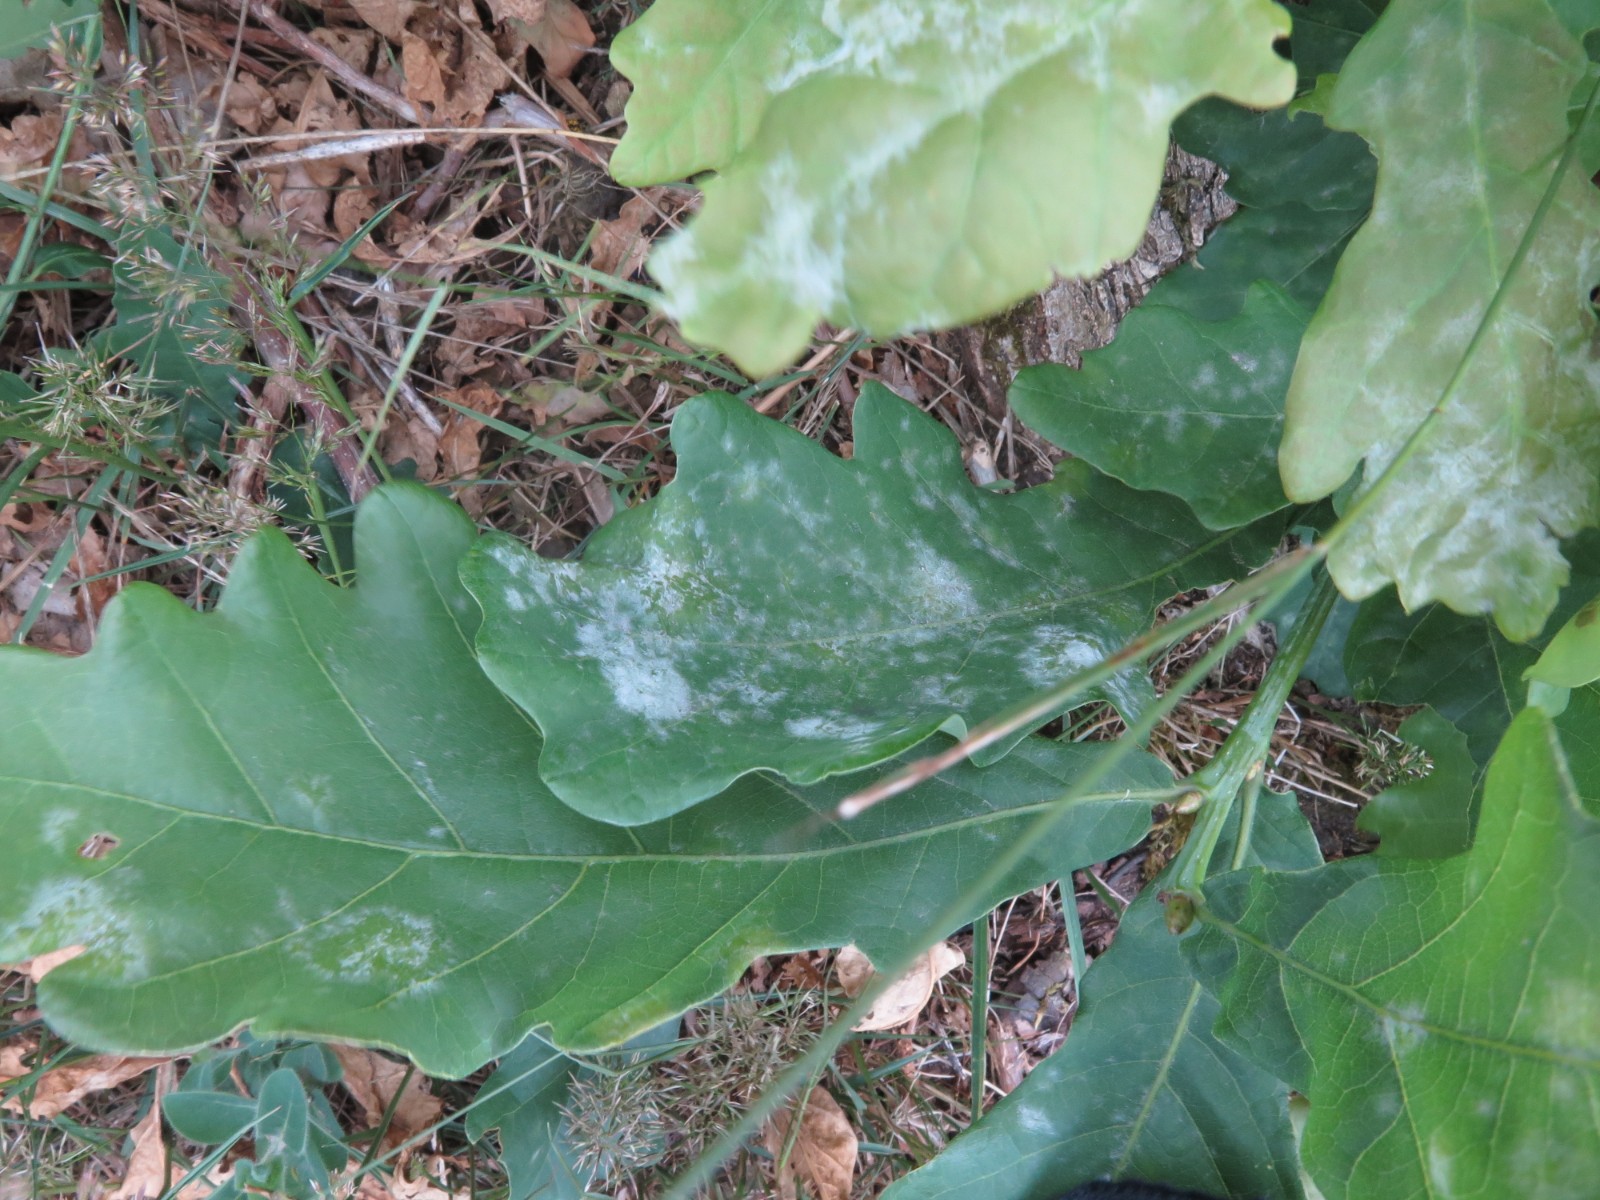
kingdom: Fungi
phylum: Ascomycota
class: Leotiomycetes
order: Helotiales
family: Erysiphaceae
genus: Erysiphe
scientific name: Erysiphe alphitoides
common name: ege-meldug
